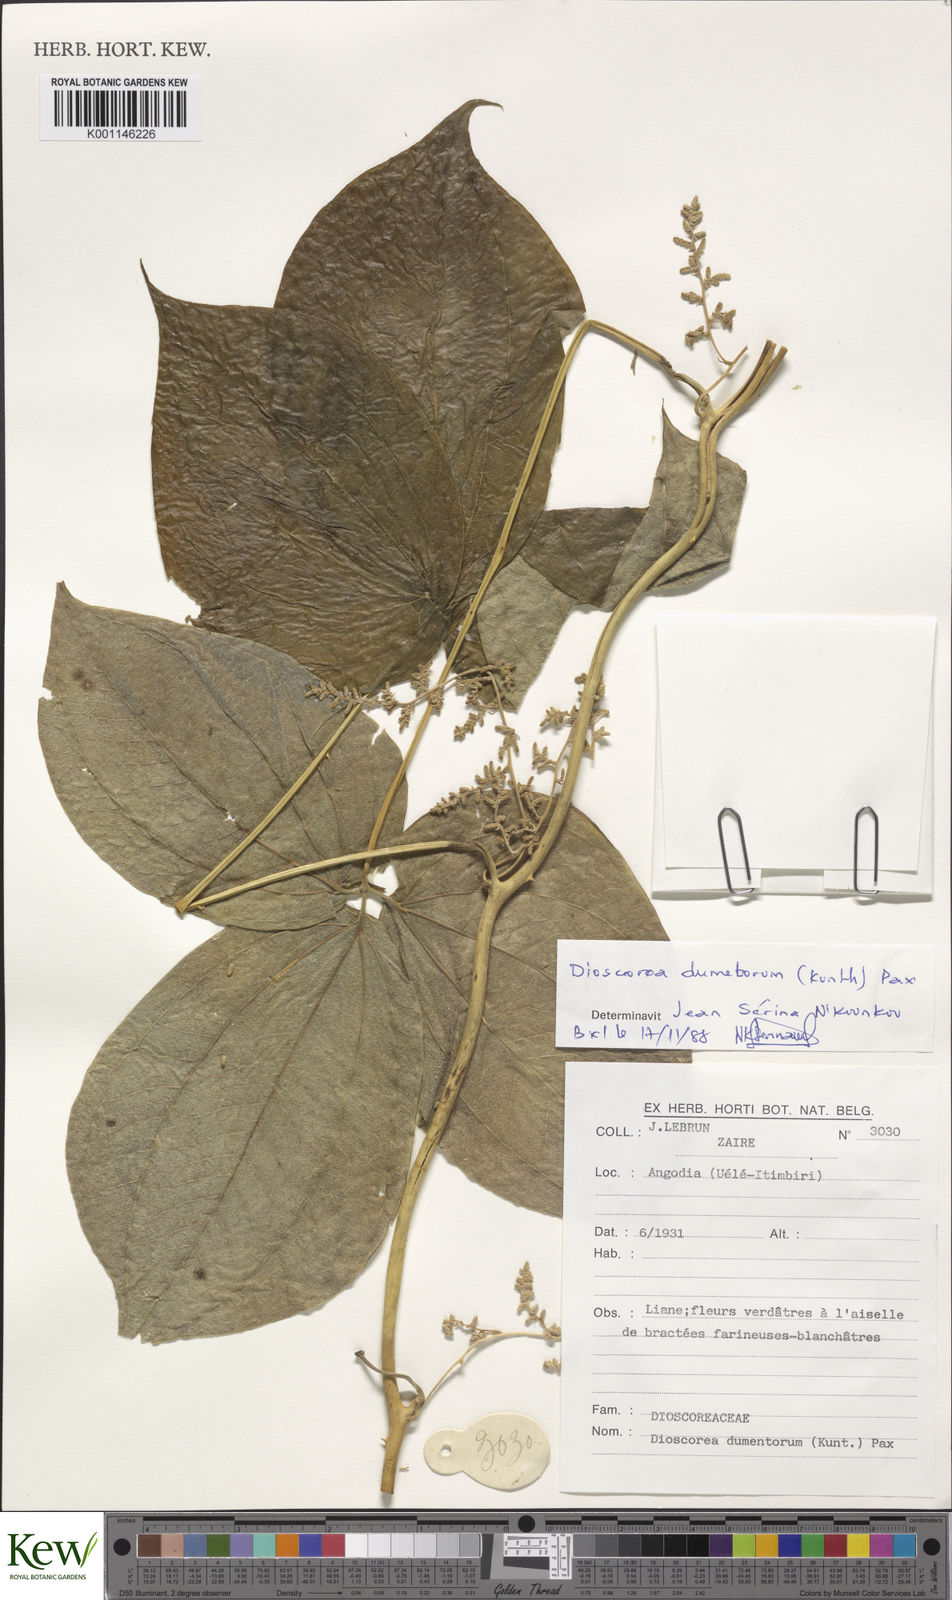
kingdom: Plantae
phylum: Tracheophyta
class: Liliopsida
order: Dioscoreales
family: Dioscoreaceae
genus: Dioscorea
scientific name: Dioscorea dumetorum
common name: African bitter yam
